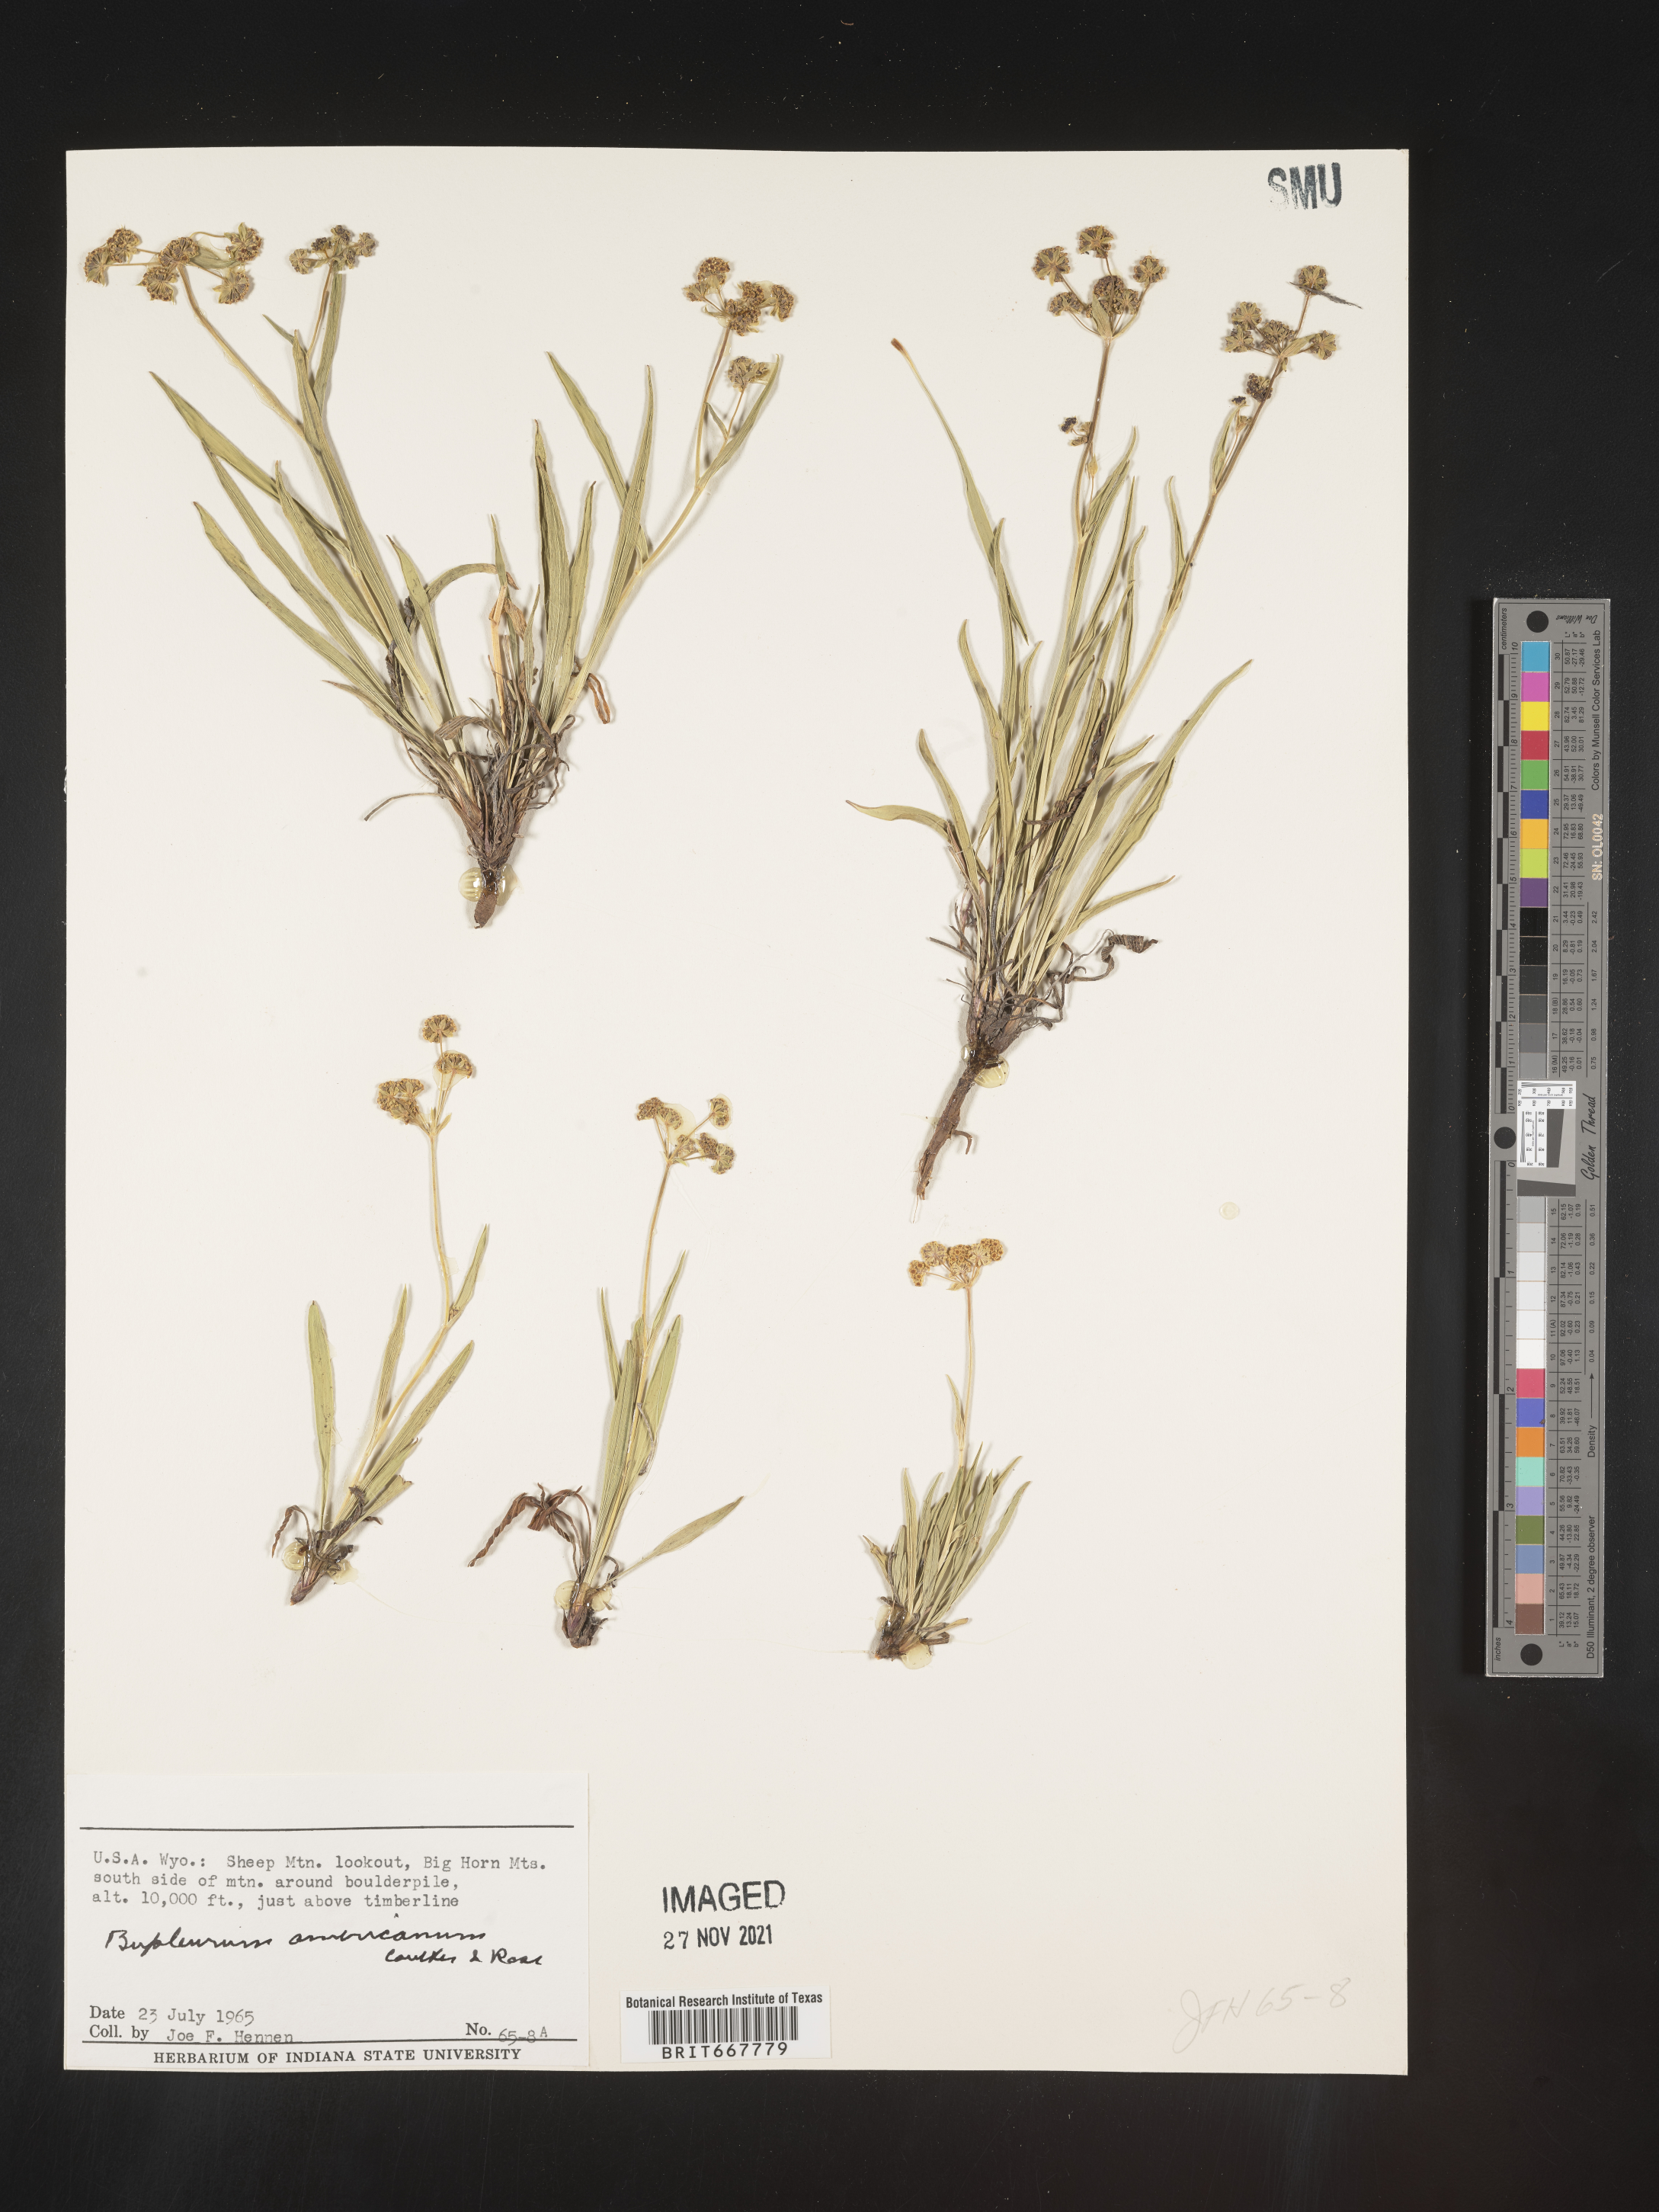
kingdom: Plantae
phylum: Tracheophyta
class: Magnoliopsida
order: Apiales
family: Apiaceae
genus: Bupleurum
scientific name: Bupleurum
